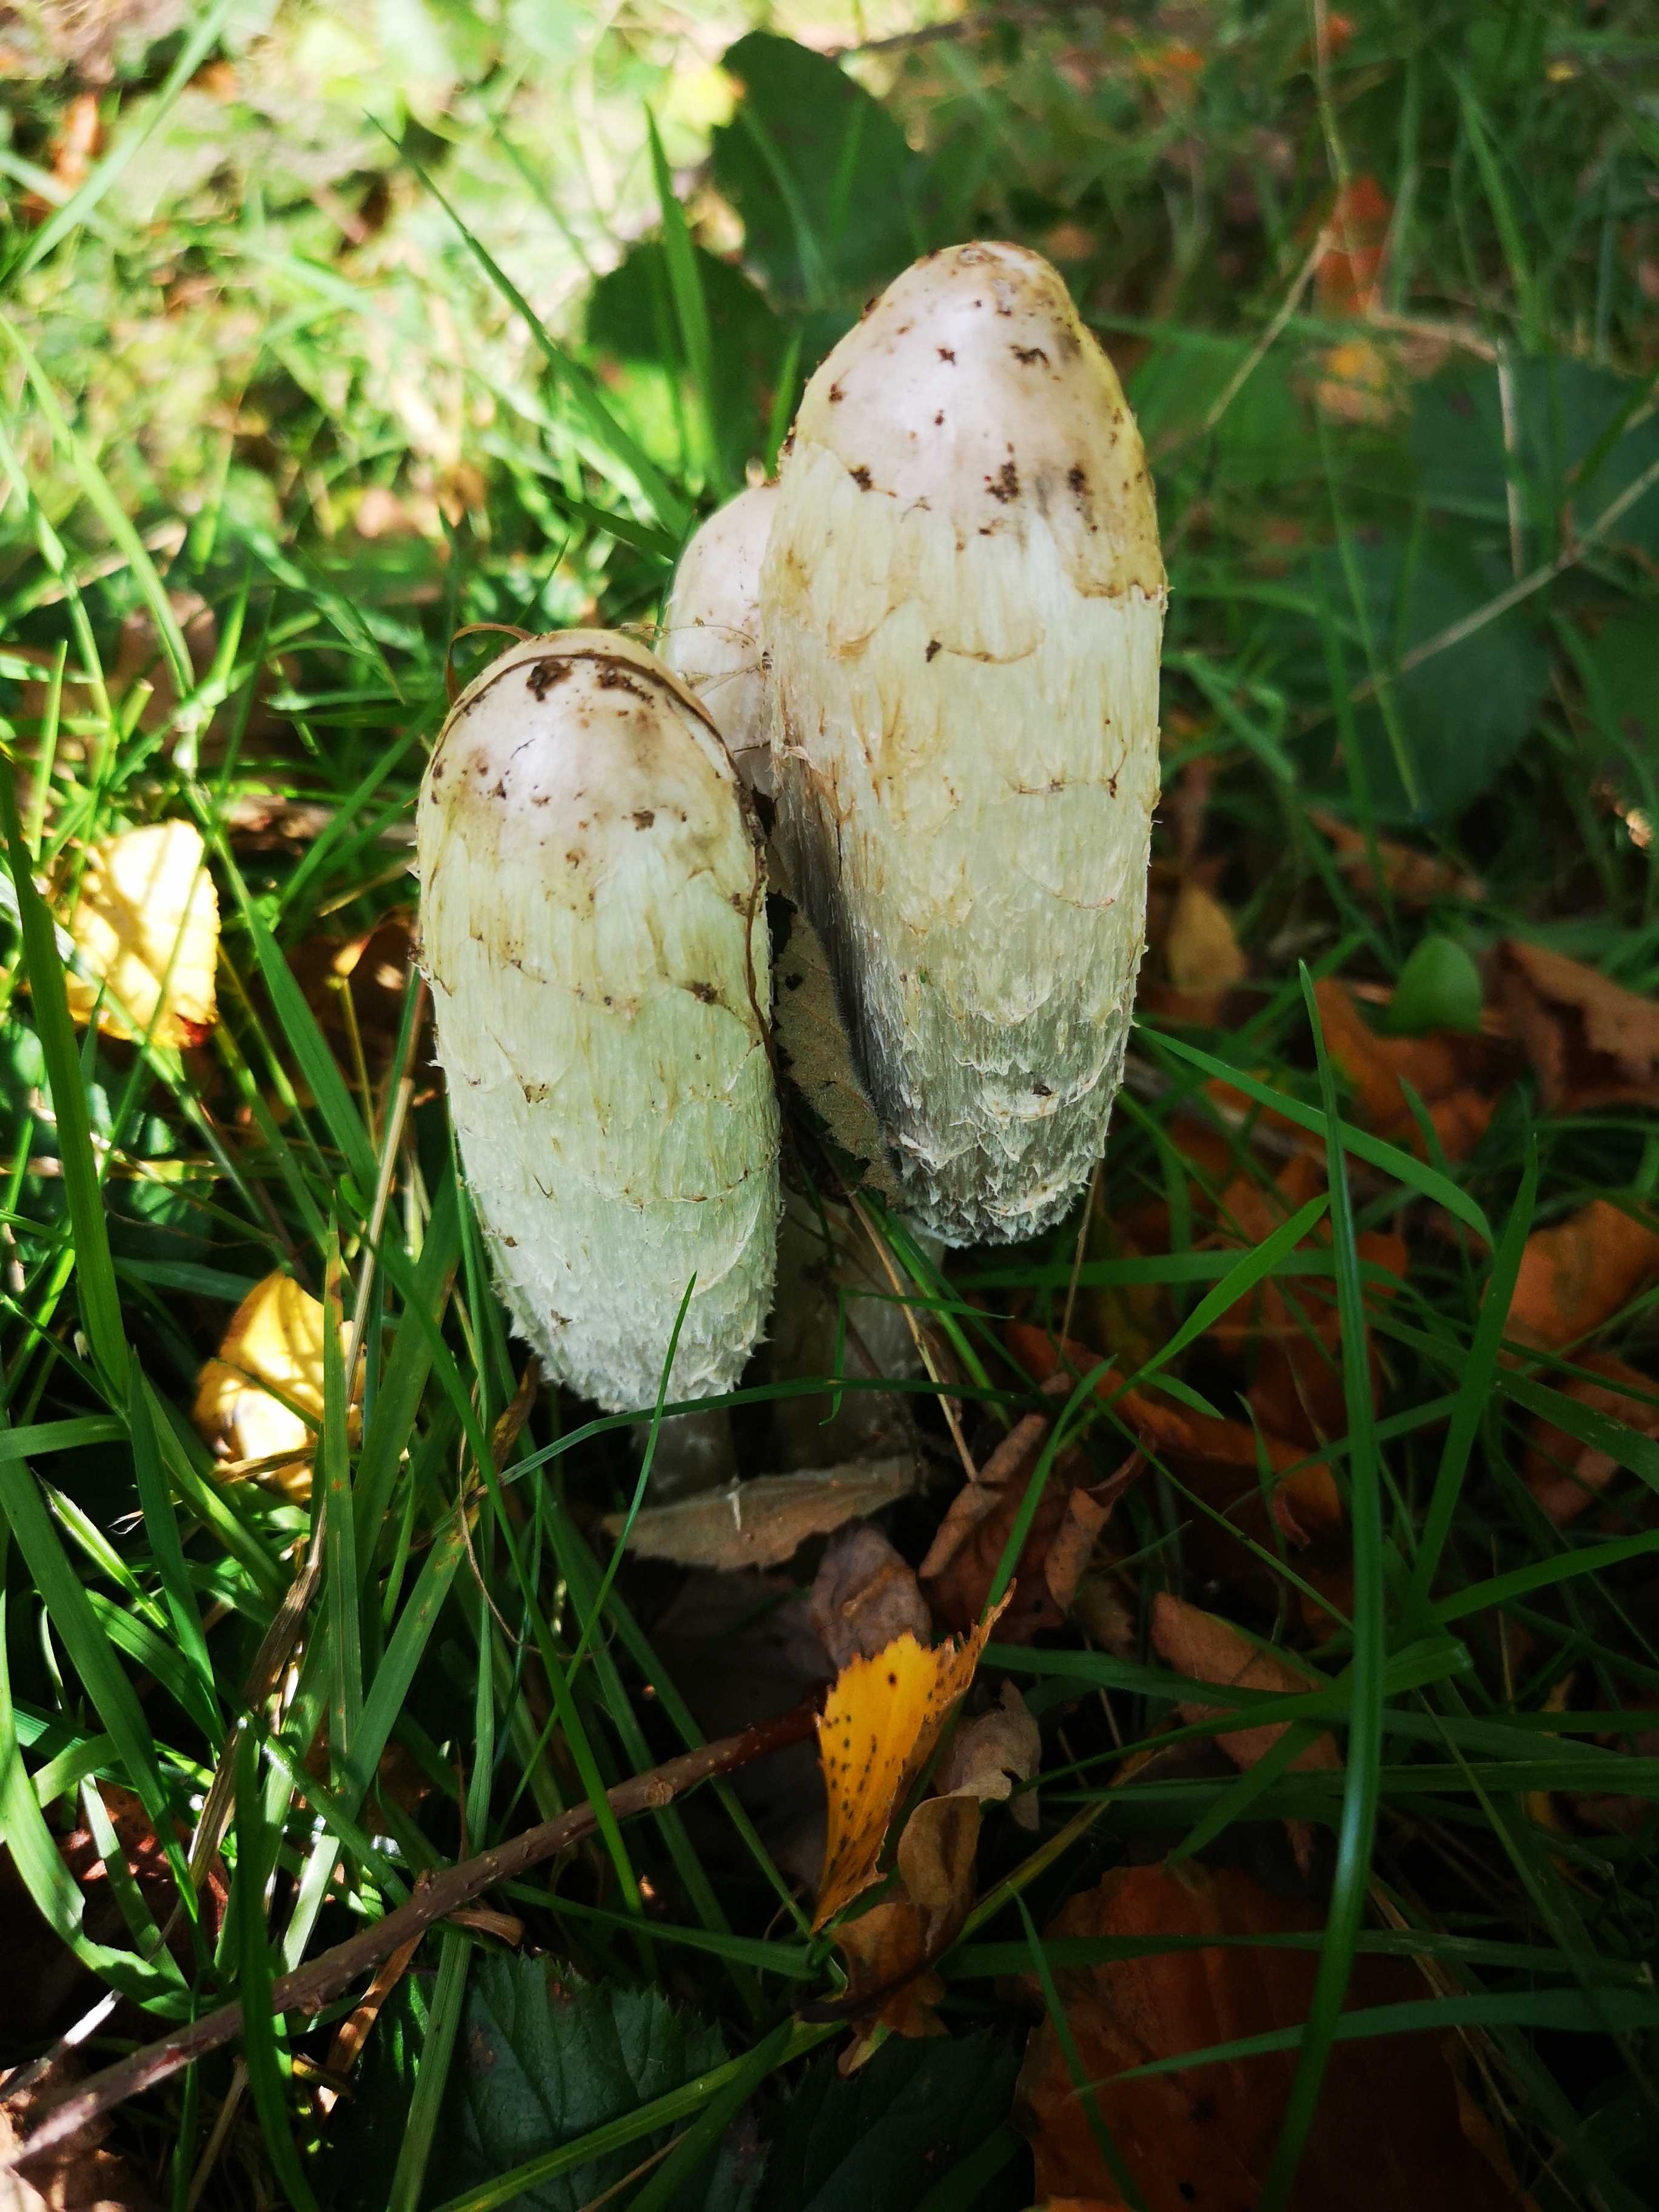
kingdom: Fungi
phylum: Basidiomycota
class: Agaricomycetes
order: Agaricales
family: Agaricaceae
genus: Coprinus
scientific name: Coprinus comatus
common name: stor parykhat
